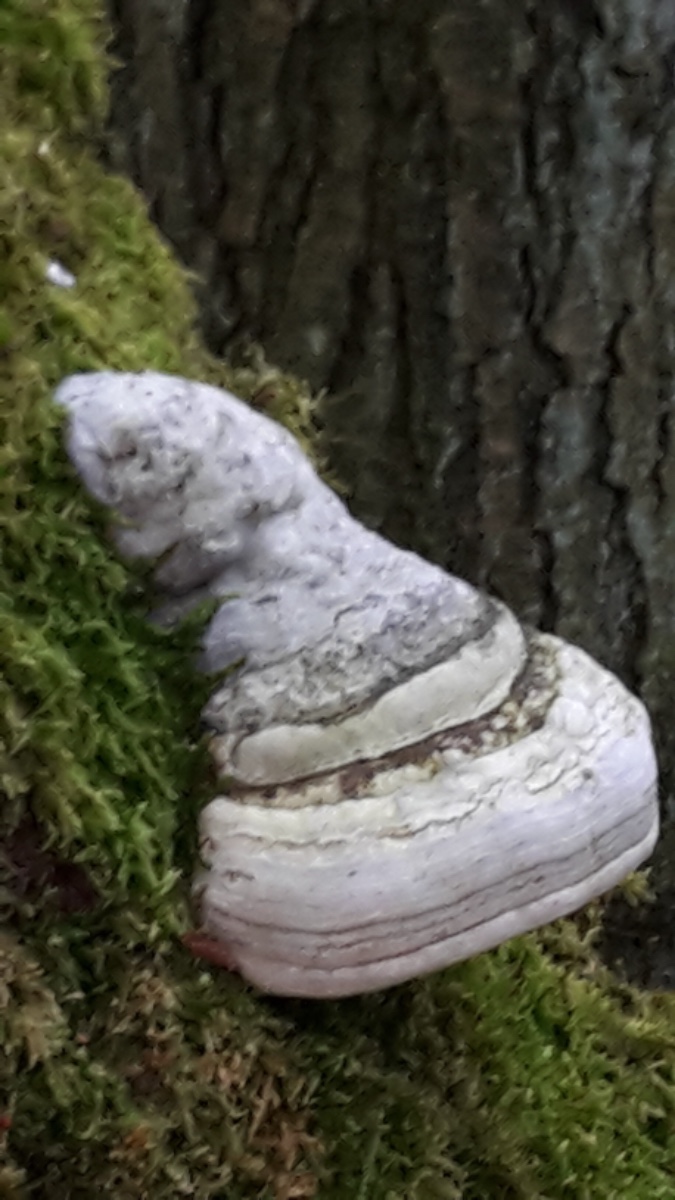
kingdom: Fungi
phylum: Basidiomycota
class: Agaricomycetes
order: Polyporales
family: Polyporaceae
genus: Fomes
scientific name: Fomes fomentarius
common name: tøndersvamp
